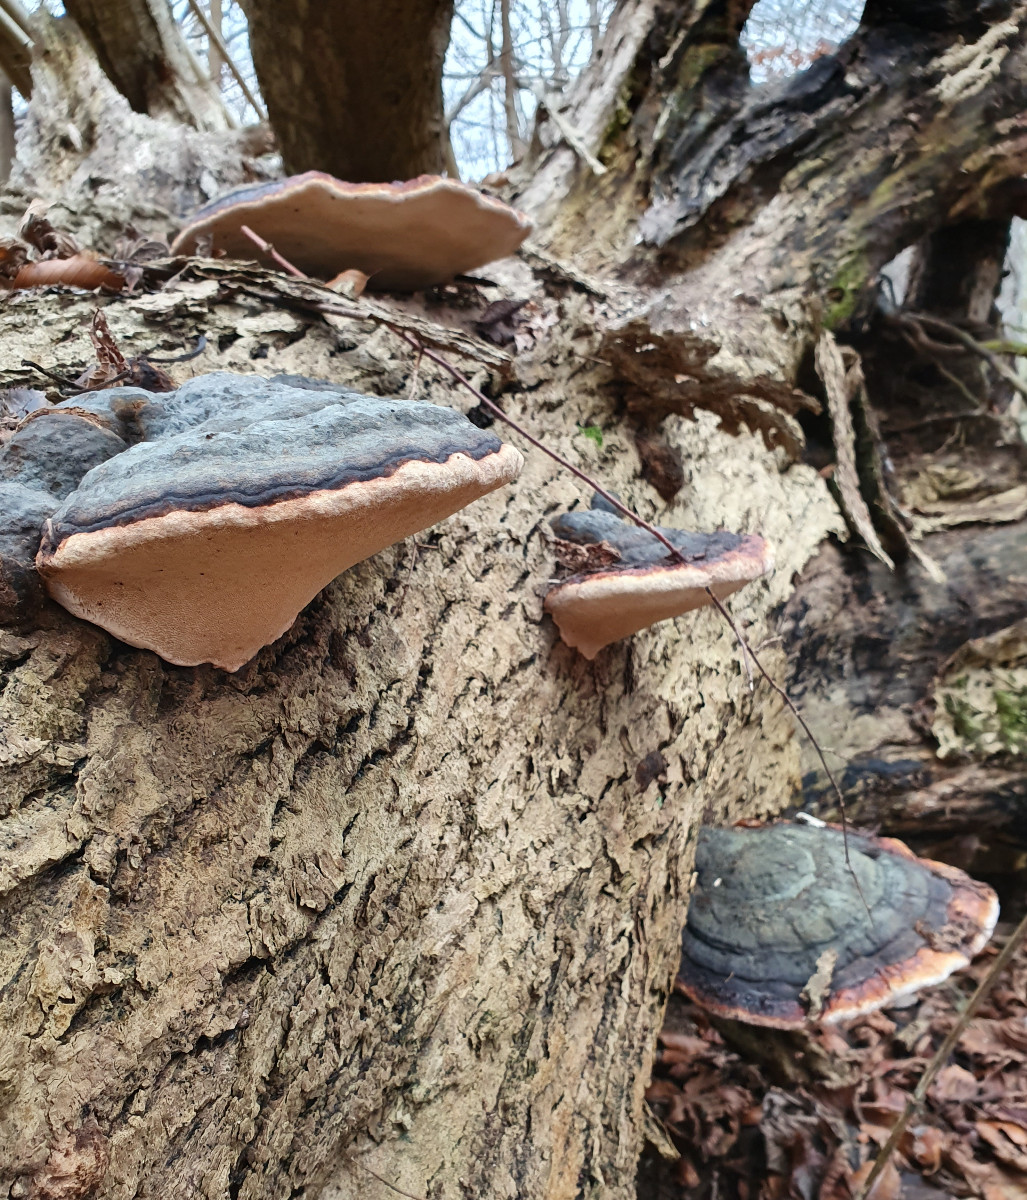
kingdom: Fungi
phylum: Basidiomycota
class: Agaricomycetes
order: Polyporales
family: Fomitopsidaceae
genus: Fomitopsis
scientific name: Fomitopsis pinicola
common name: randbæltet hovporesvamp
